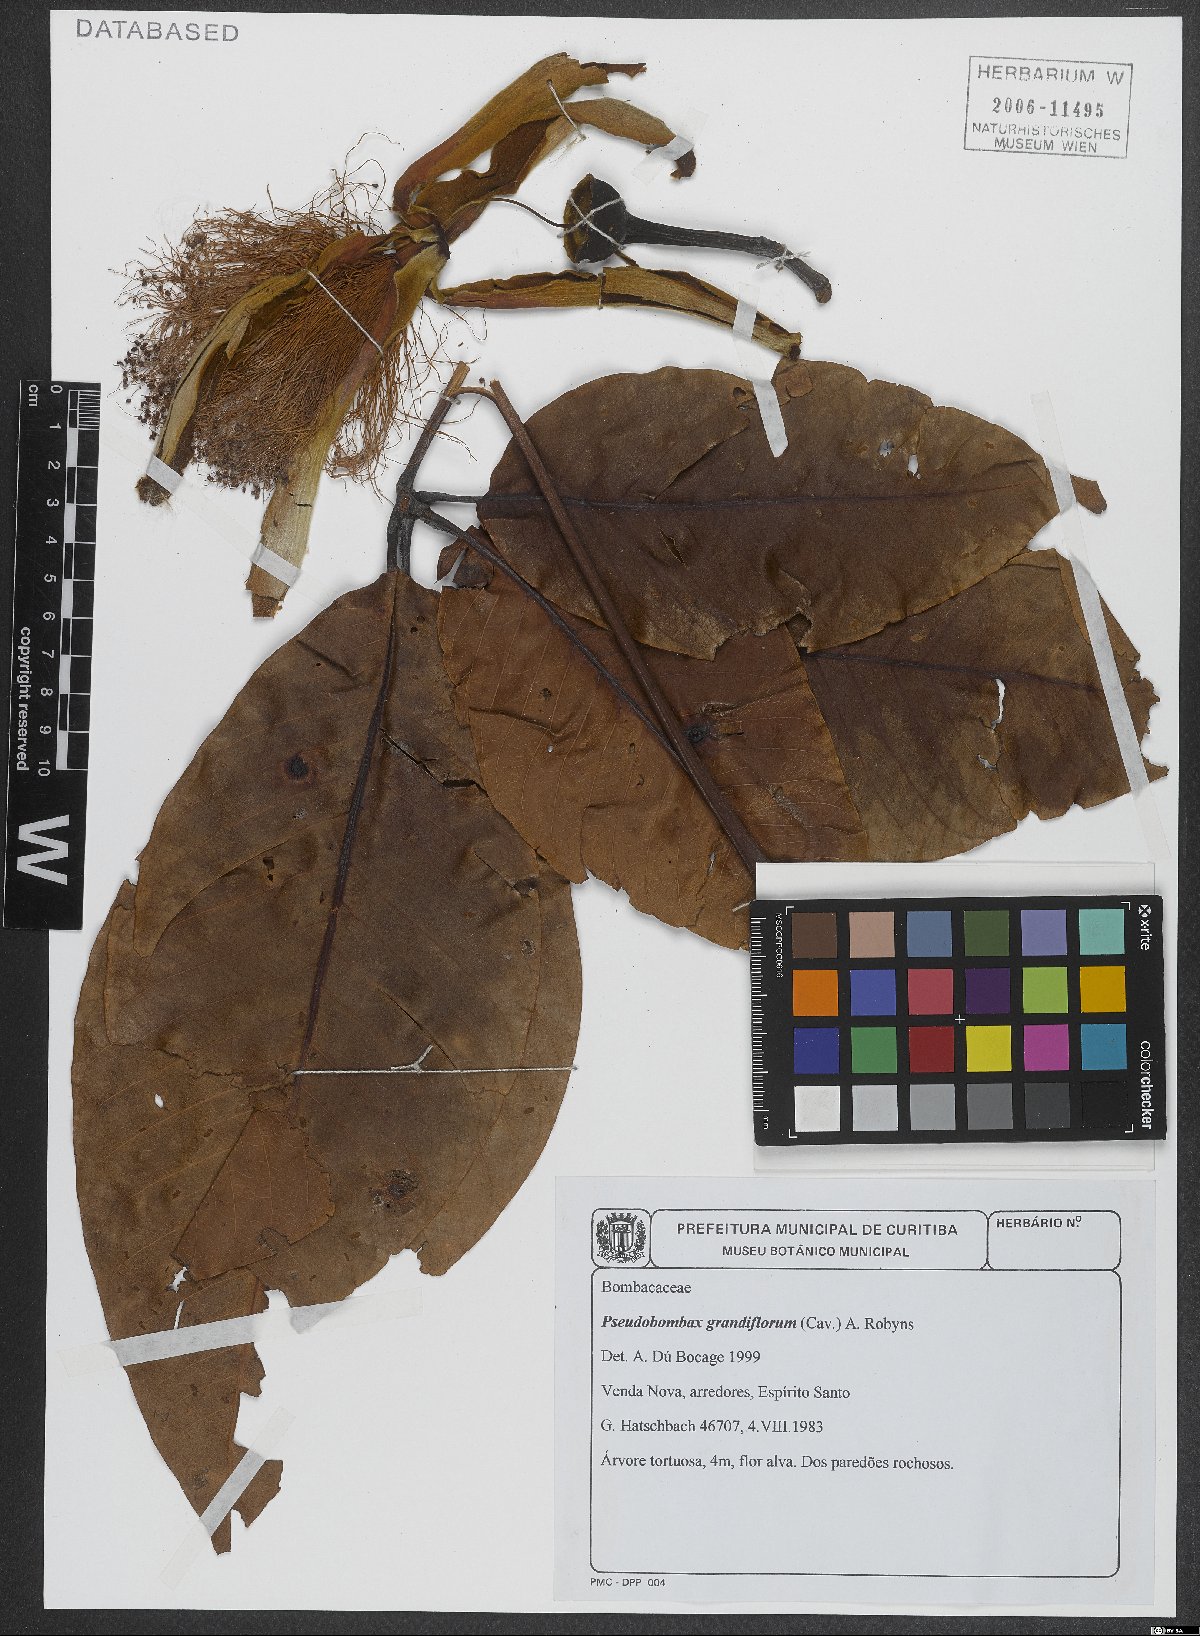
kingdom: Plantae
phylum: Tracheophyta
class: Magnoliopsida
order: Malvales
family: Malvaceae
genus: Pseudobombax
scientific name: Pseudobombax grandiflorum
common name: Brazilian shaving-brush-tree
